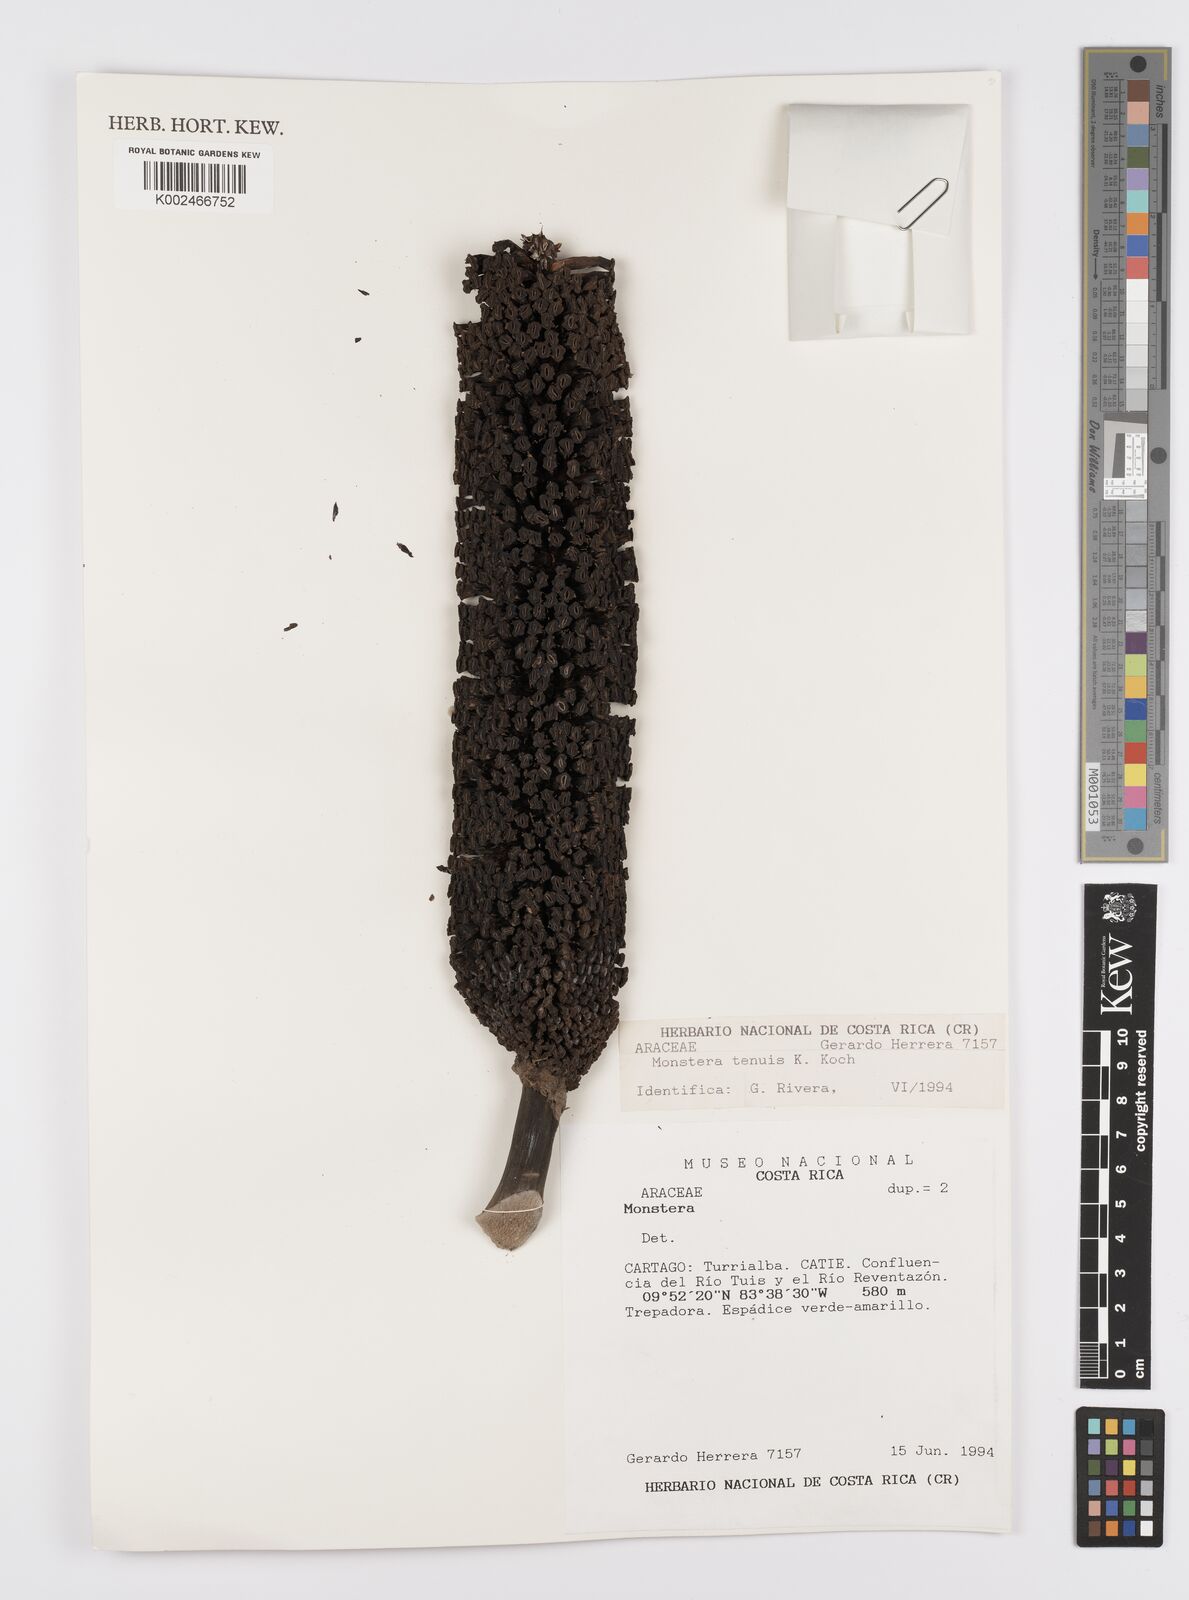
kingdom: Plantae
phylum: Tracheophyta
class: Liliopsida
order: Alismatales
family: Araceae
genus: Monstera
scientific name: Monstera tenuis
